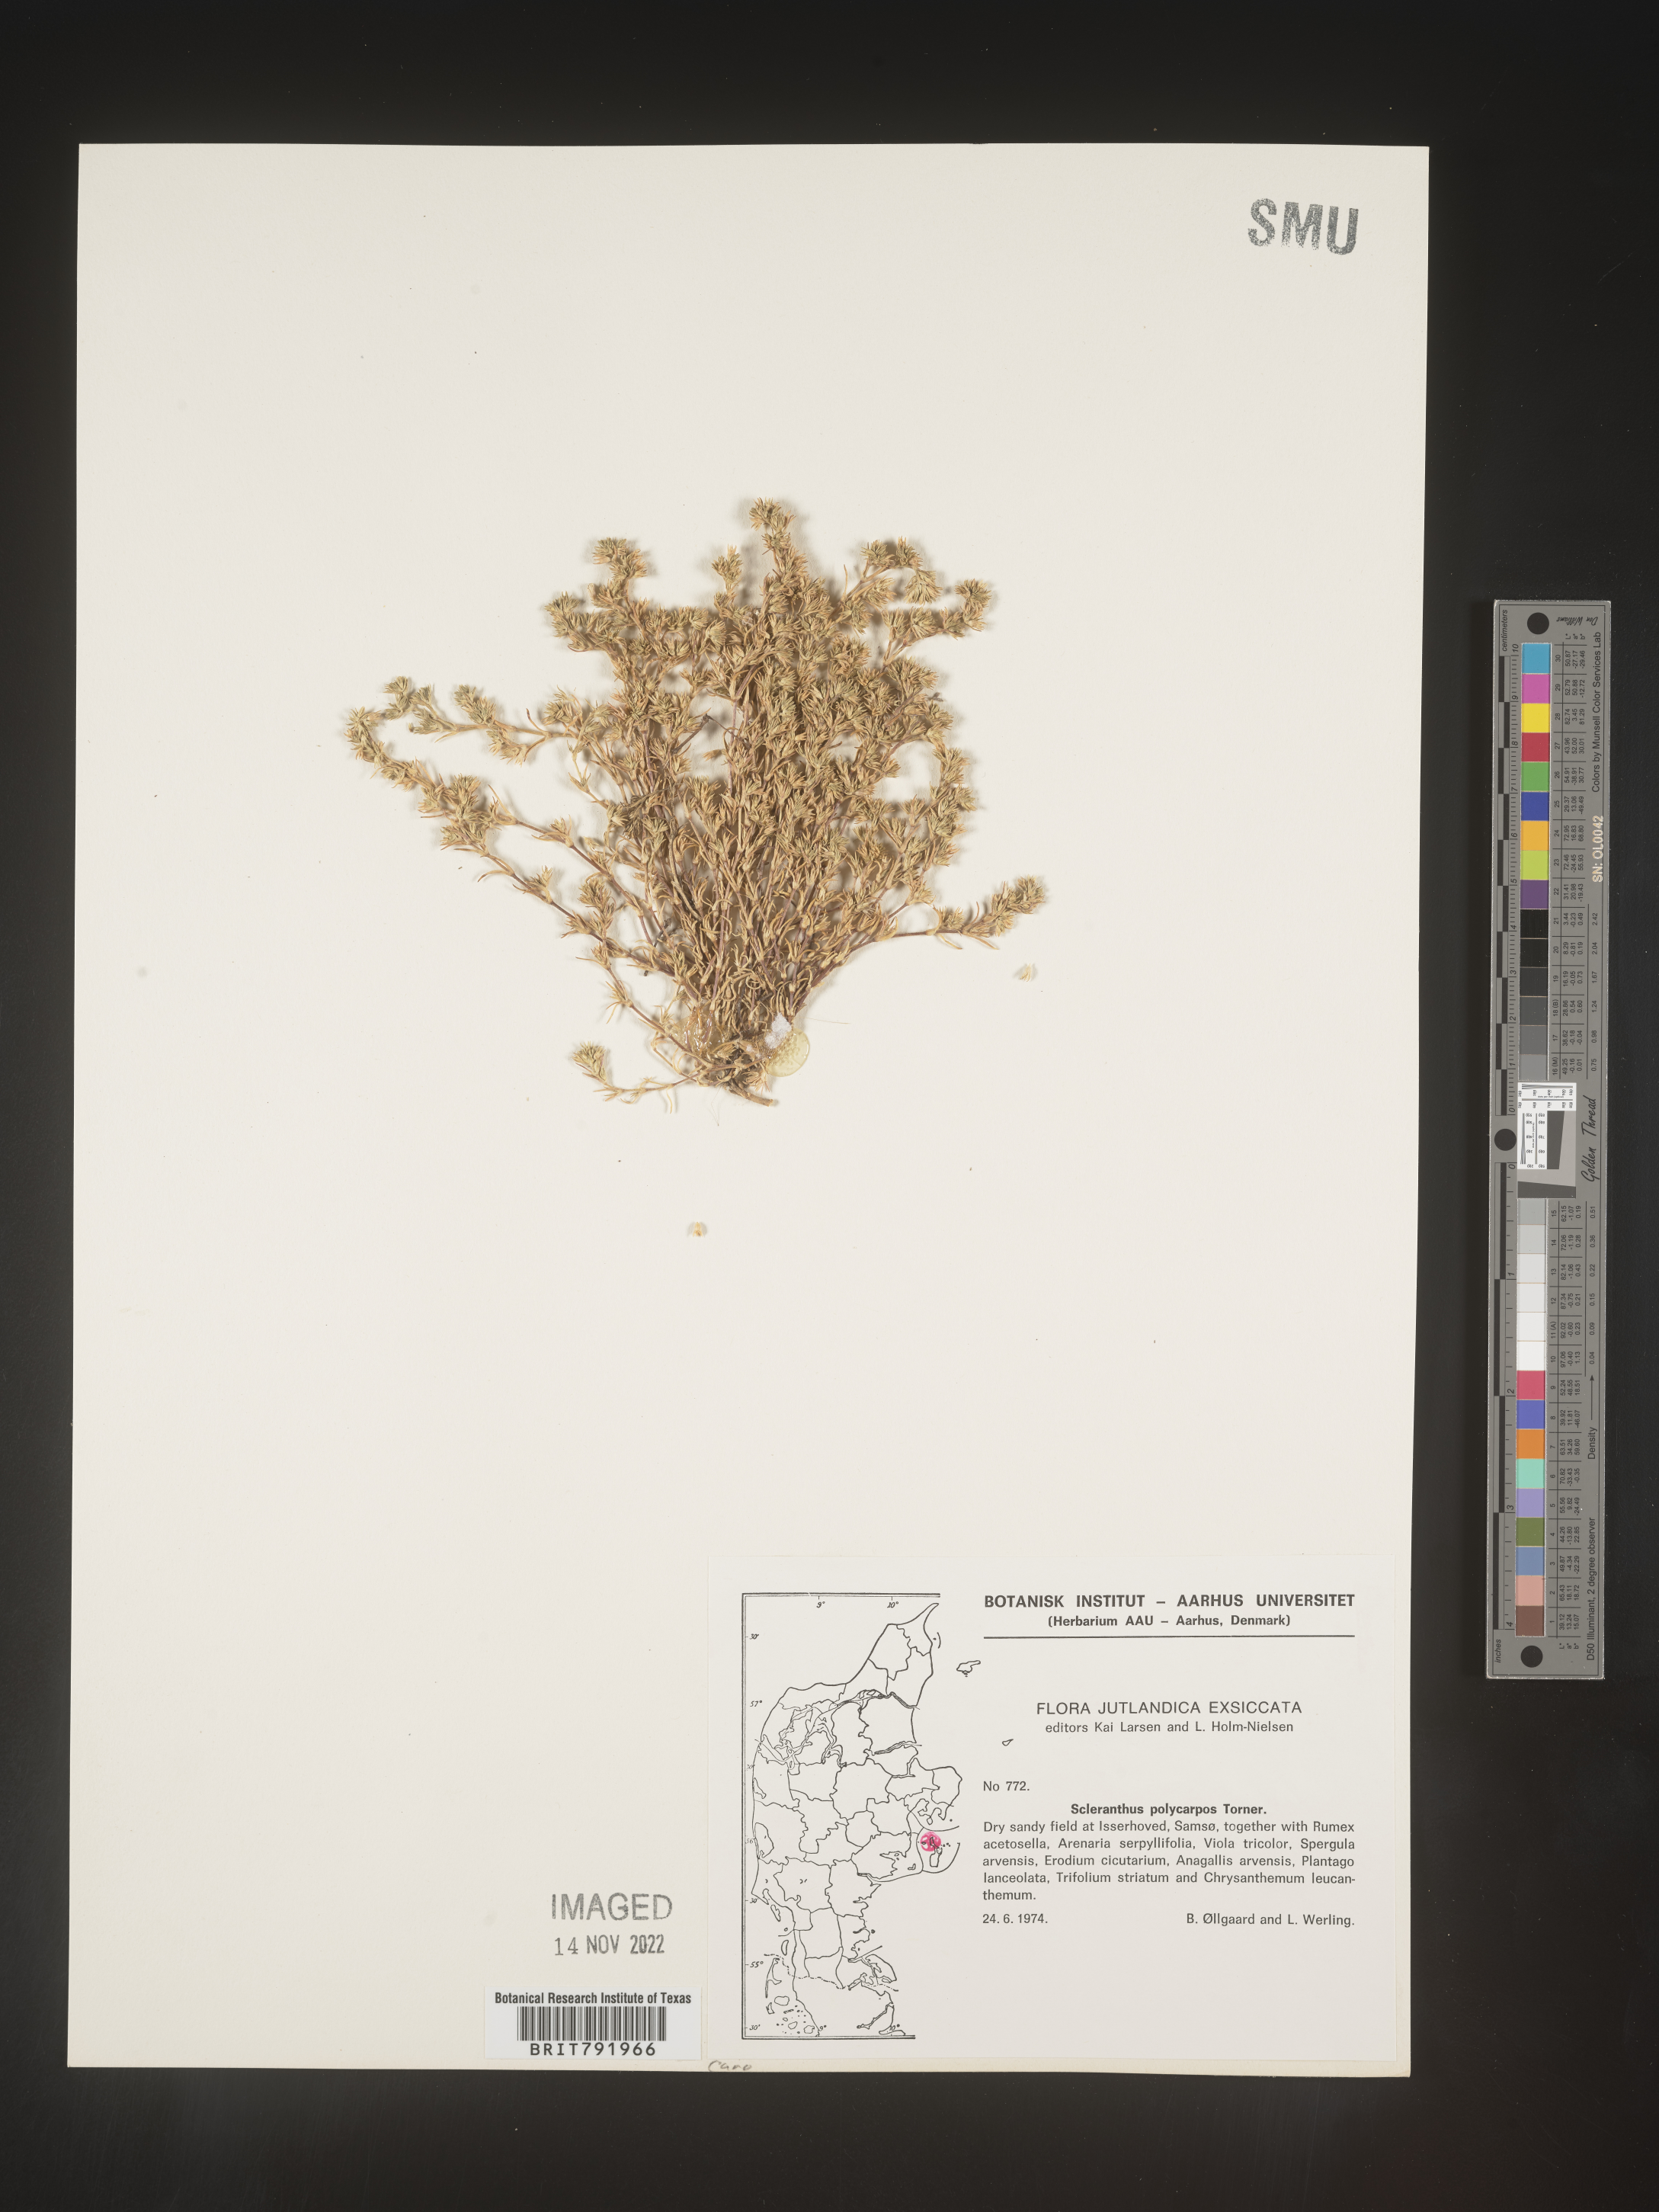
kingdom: Plantae
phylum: Tracheophyta
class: Magnoliopsida
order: Caryophyllales
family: Caryophyllaceae
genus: Scleranthus
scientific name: Scleranthus
